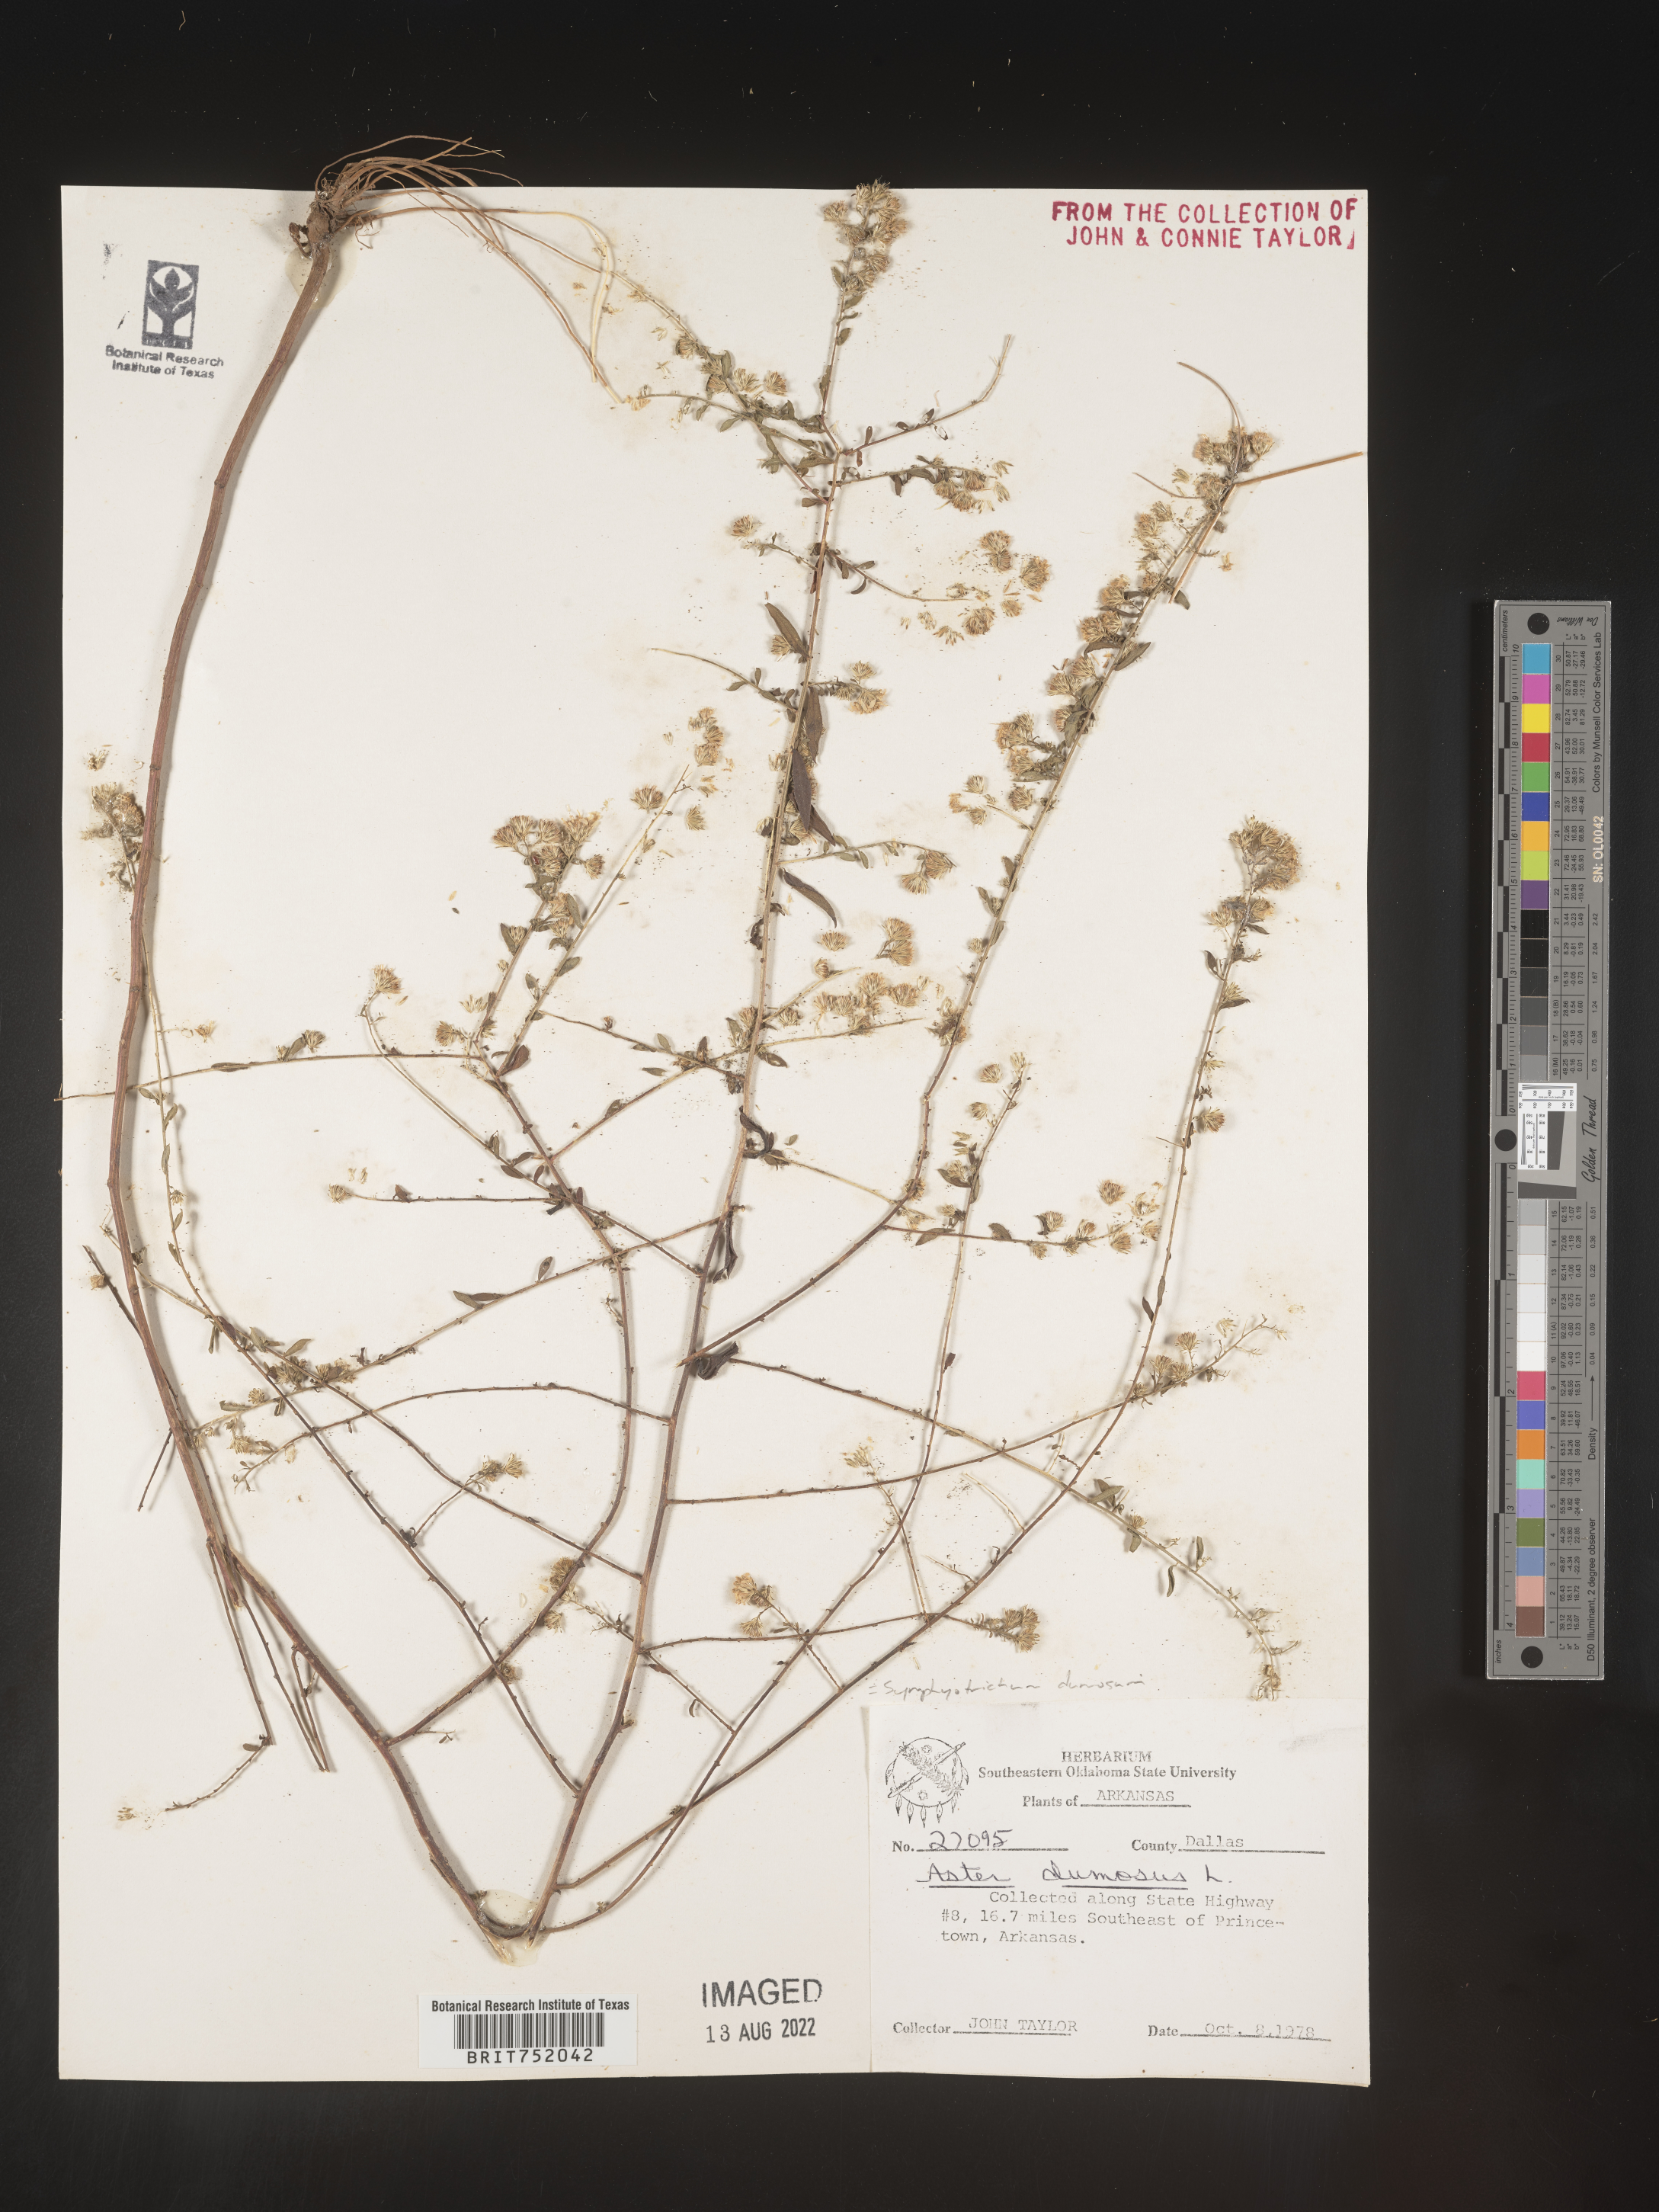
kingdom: Plantae
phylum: Tracheophyta
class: Magnoliopsida
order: Asterales
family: Asteraceae
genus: Symphyotrichum
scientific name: Symphyotrichum dumosum
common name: Bushy aster
